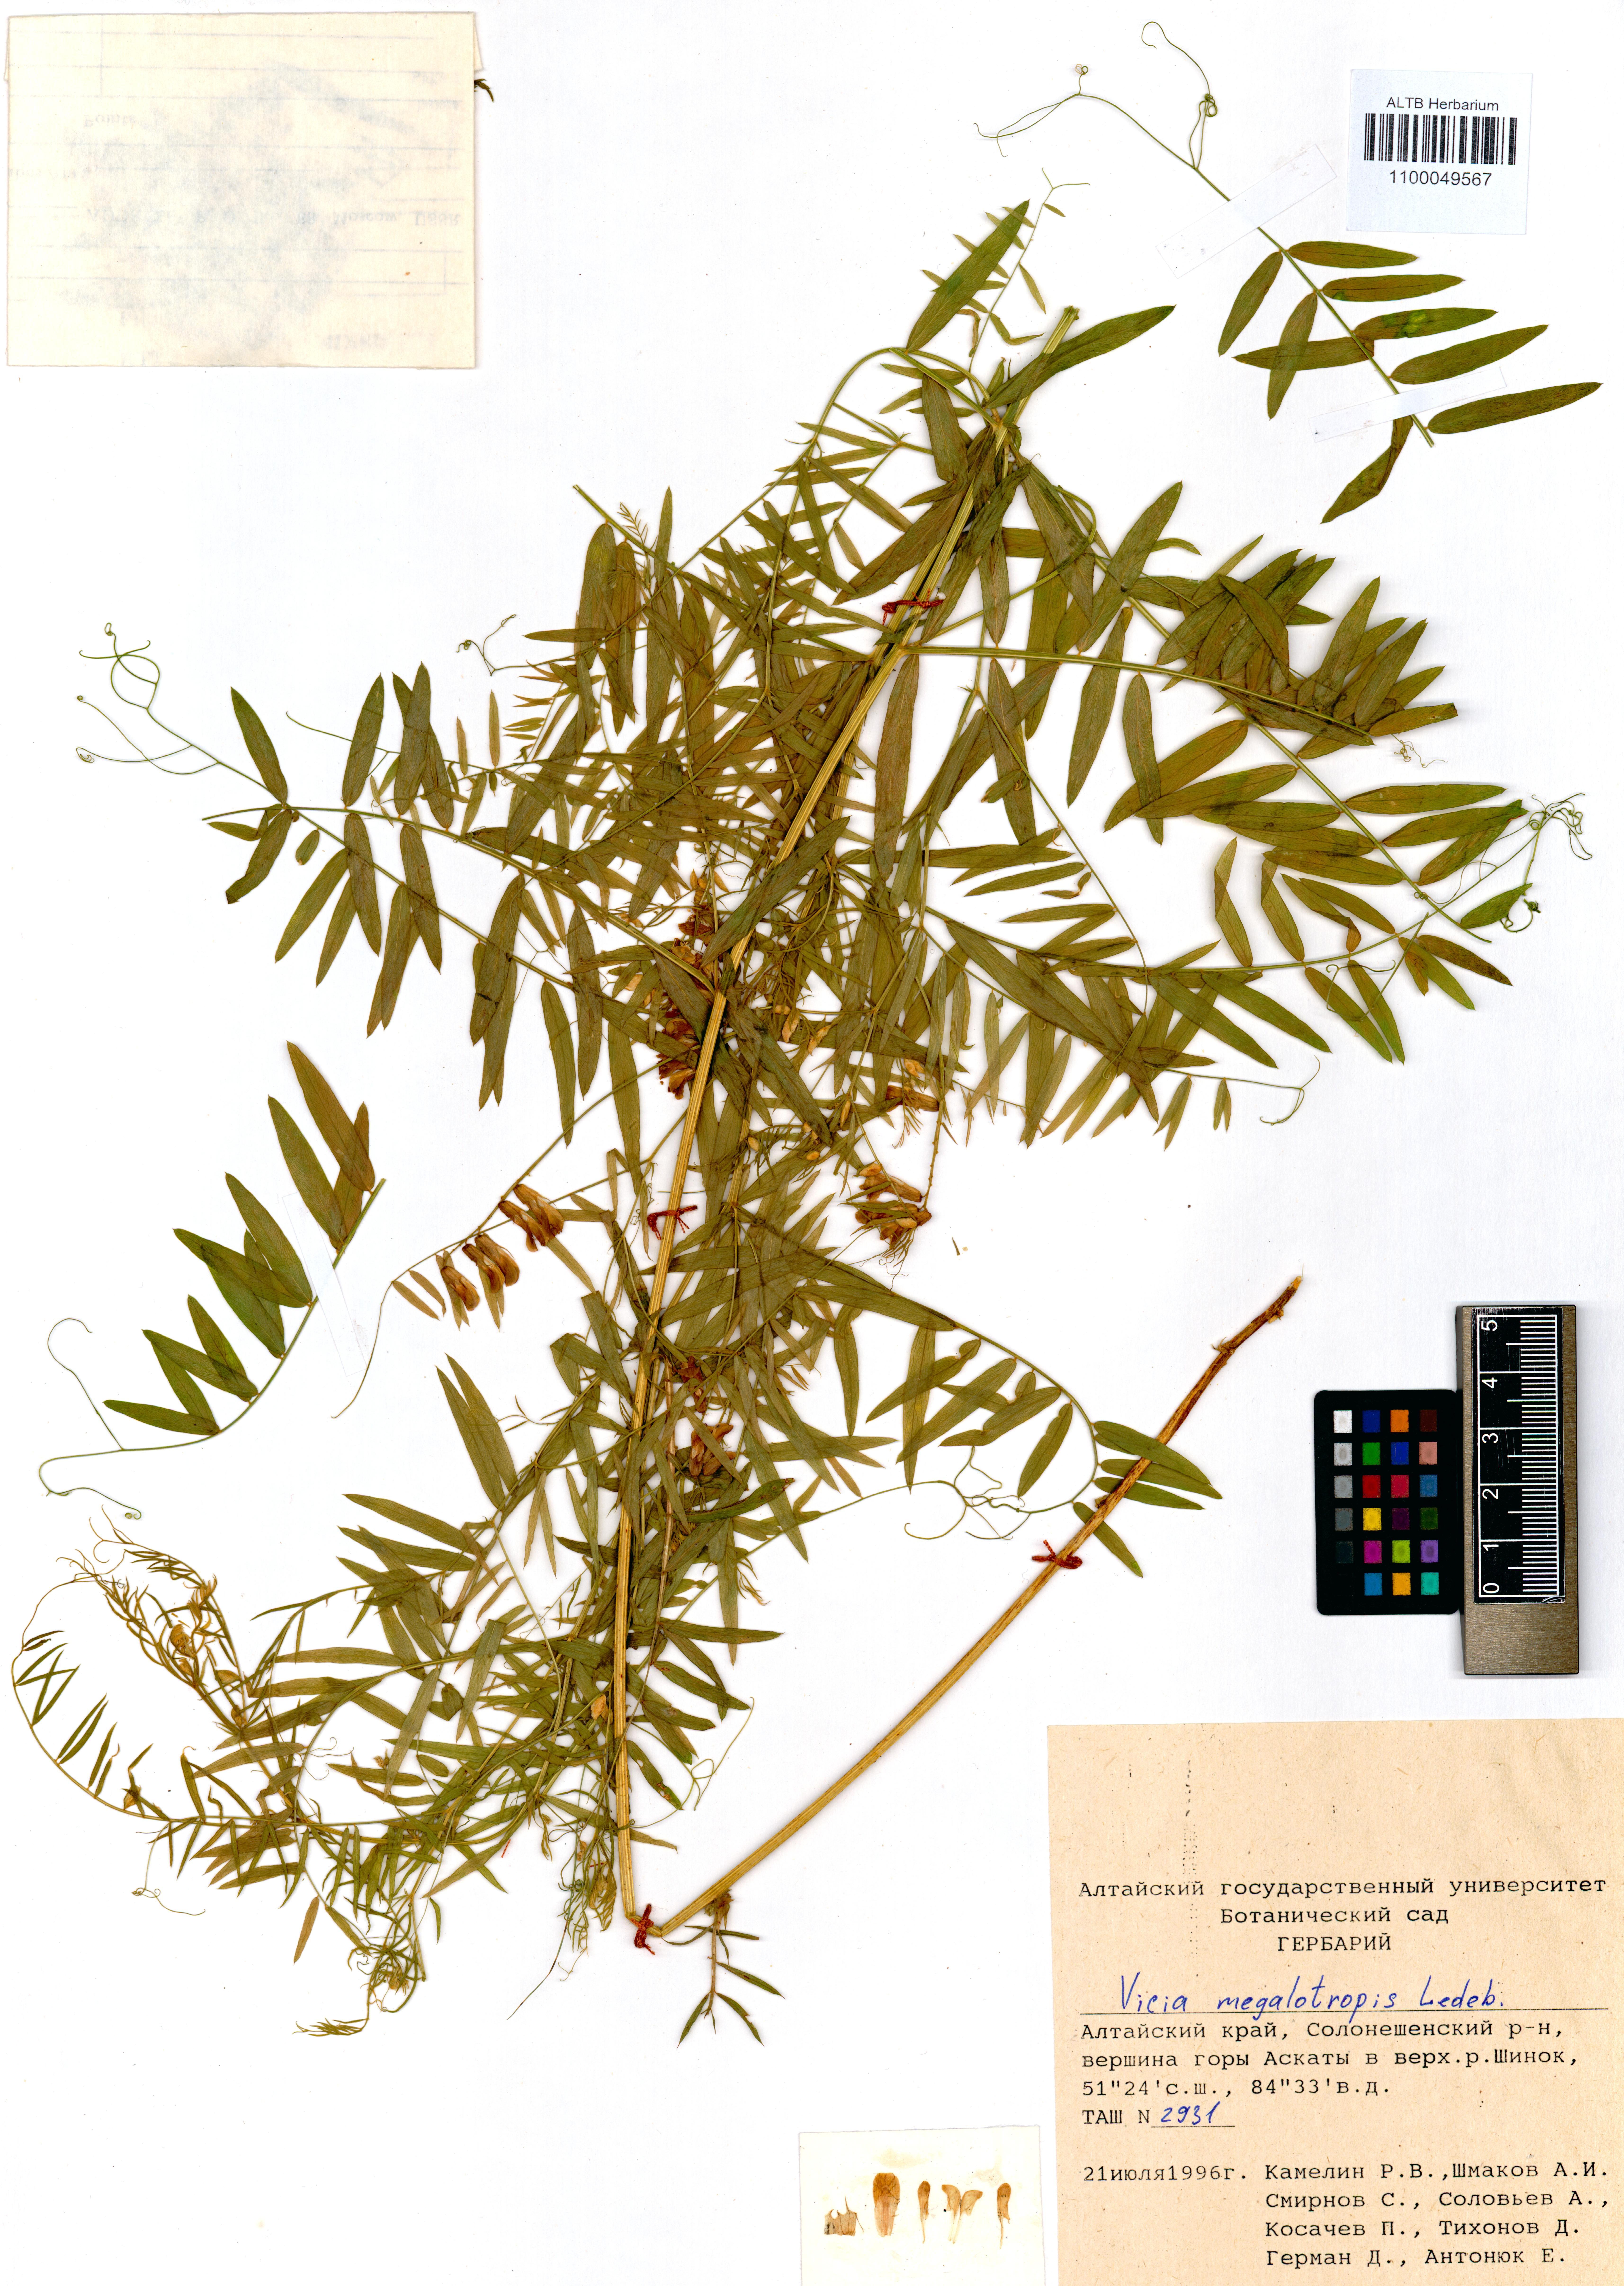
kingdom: Plantae
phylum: Tracheophyta
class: Magnoliopsida
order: Fabales
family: Fabaceae
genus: Vicia
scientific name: Vicia megalotropis
